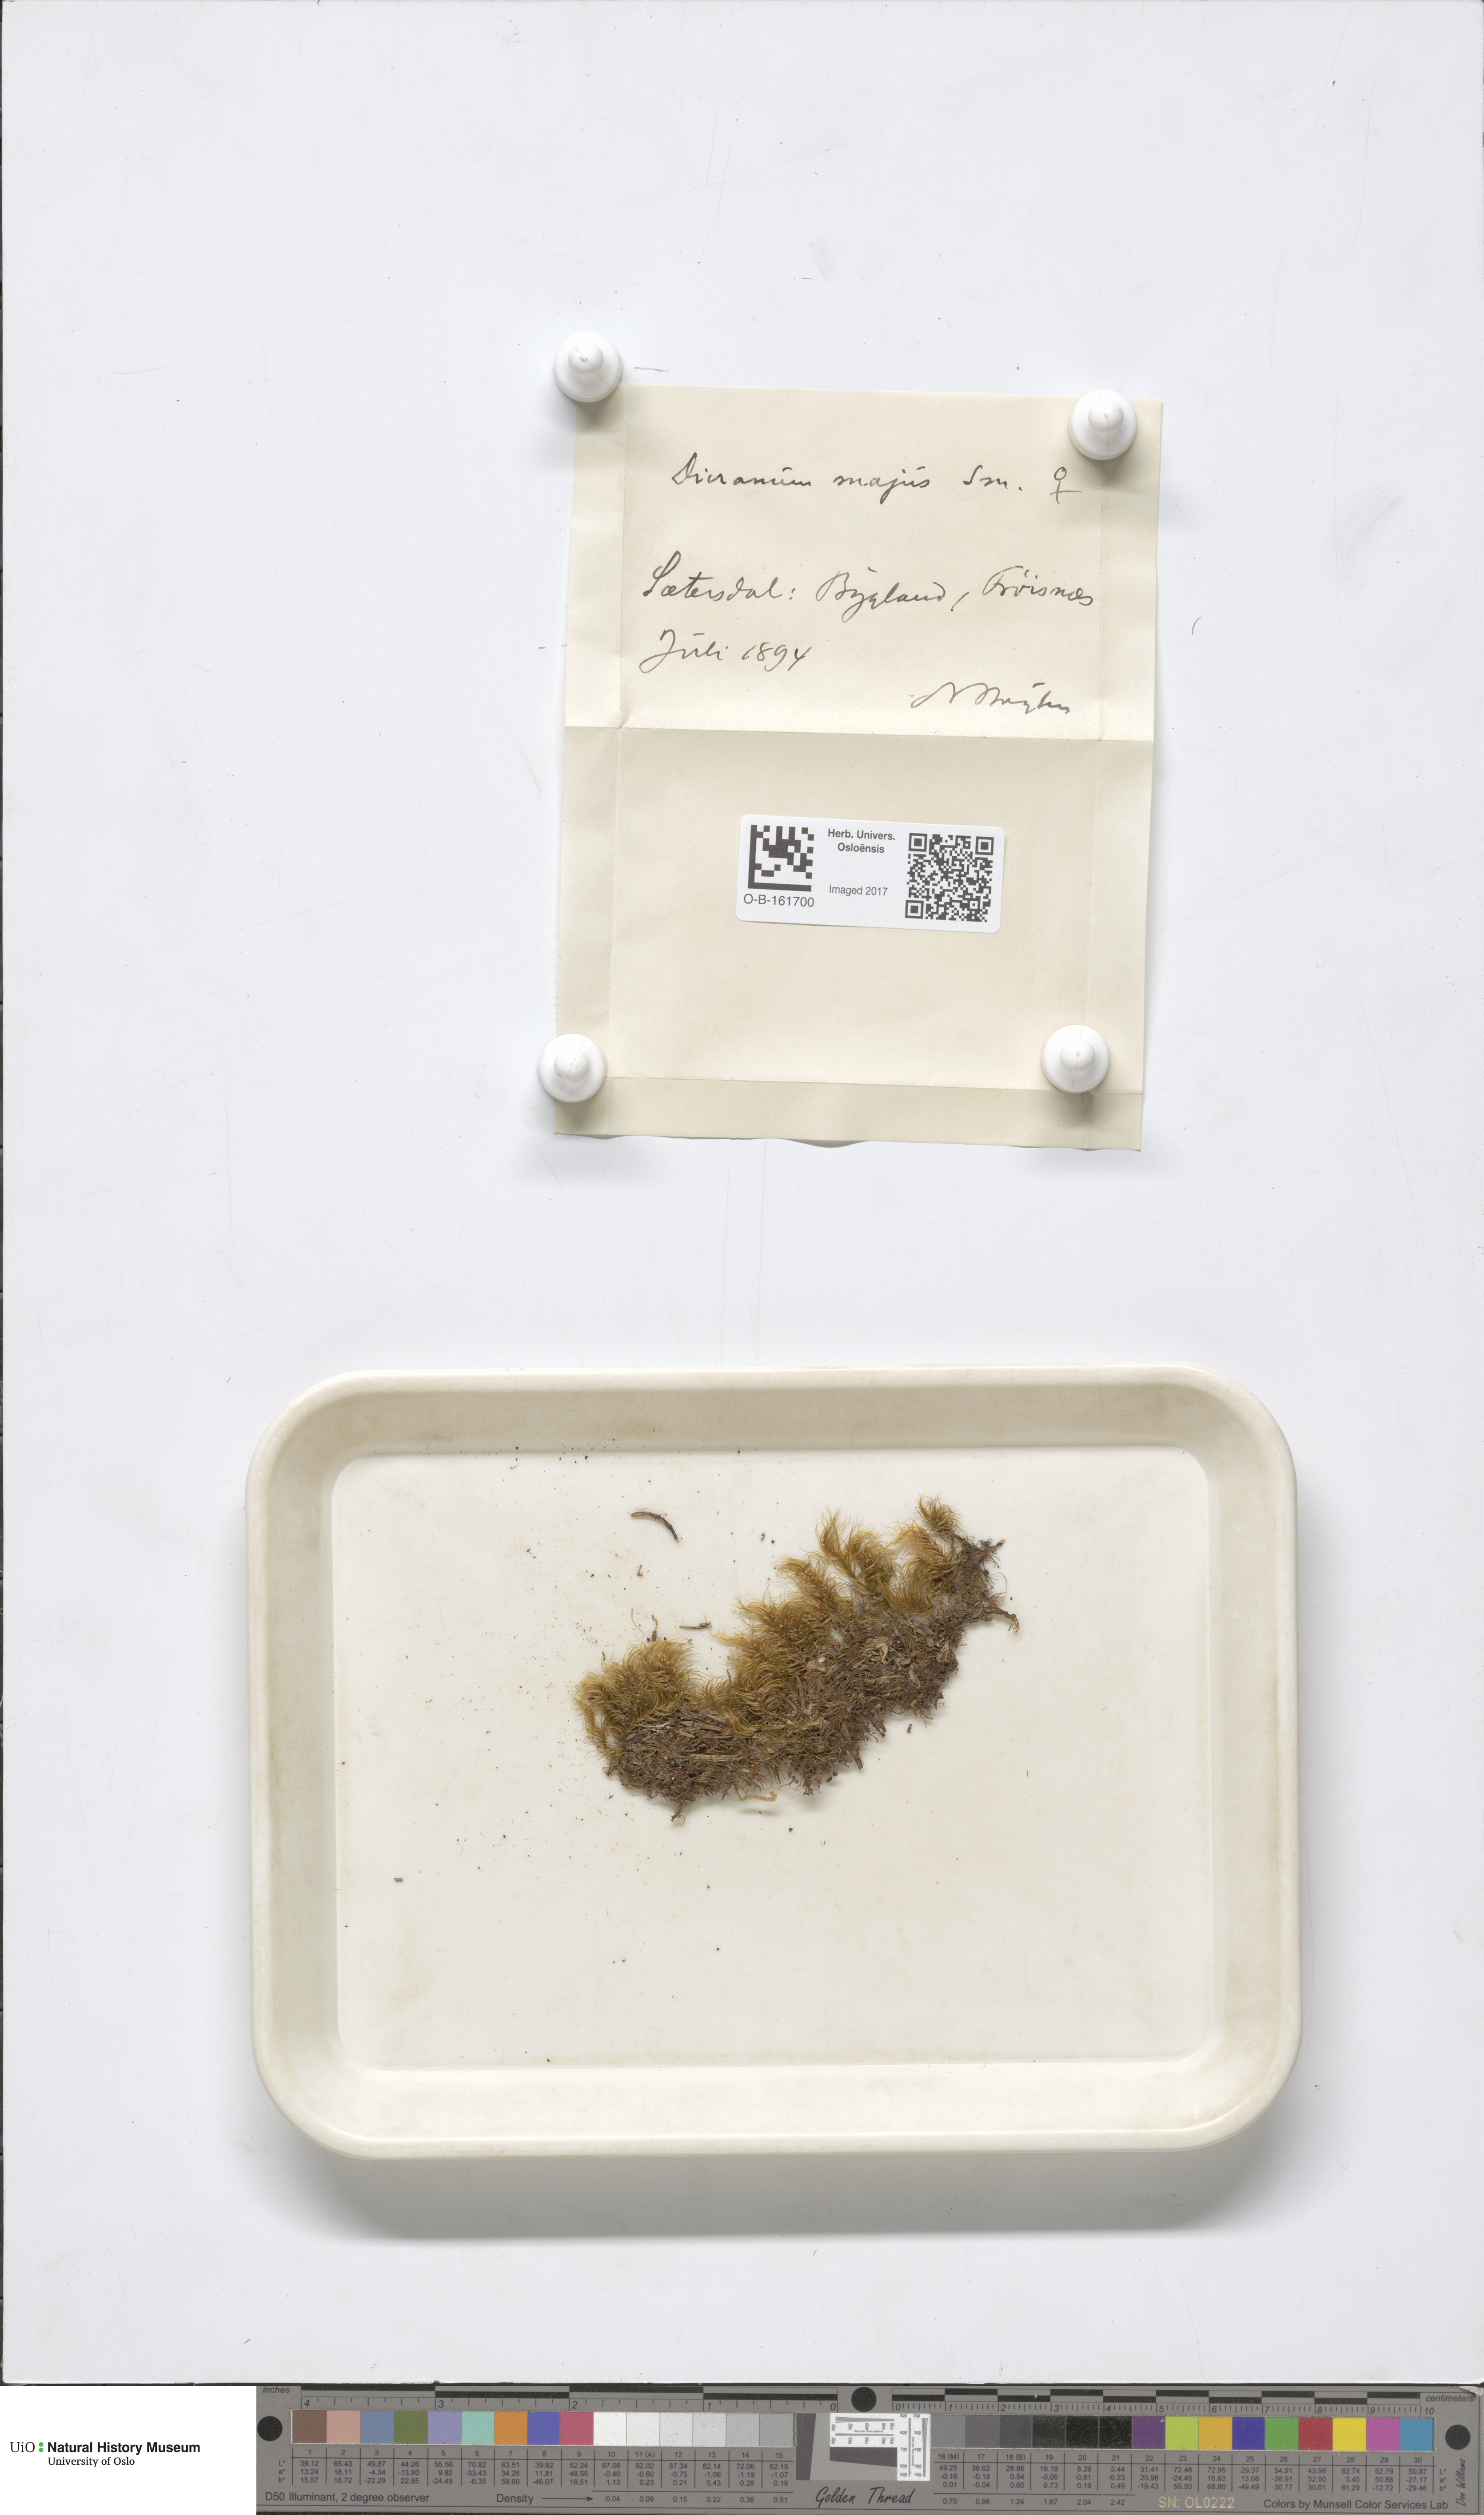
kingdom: Plantae
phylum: Bryophyta
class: Bryopsida
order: Dicranales
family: Dicranaceae
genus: Dicranum
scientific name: Dicranum majus
